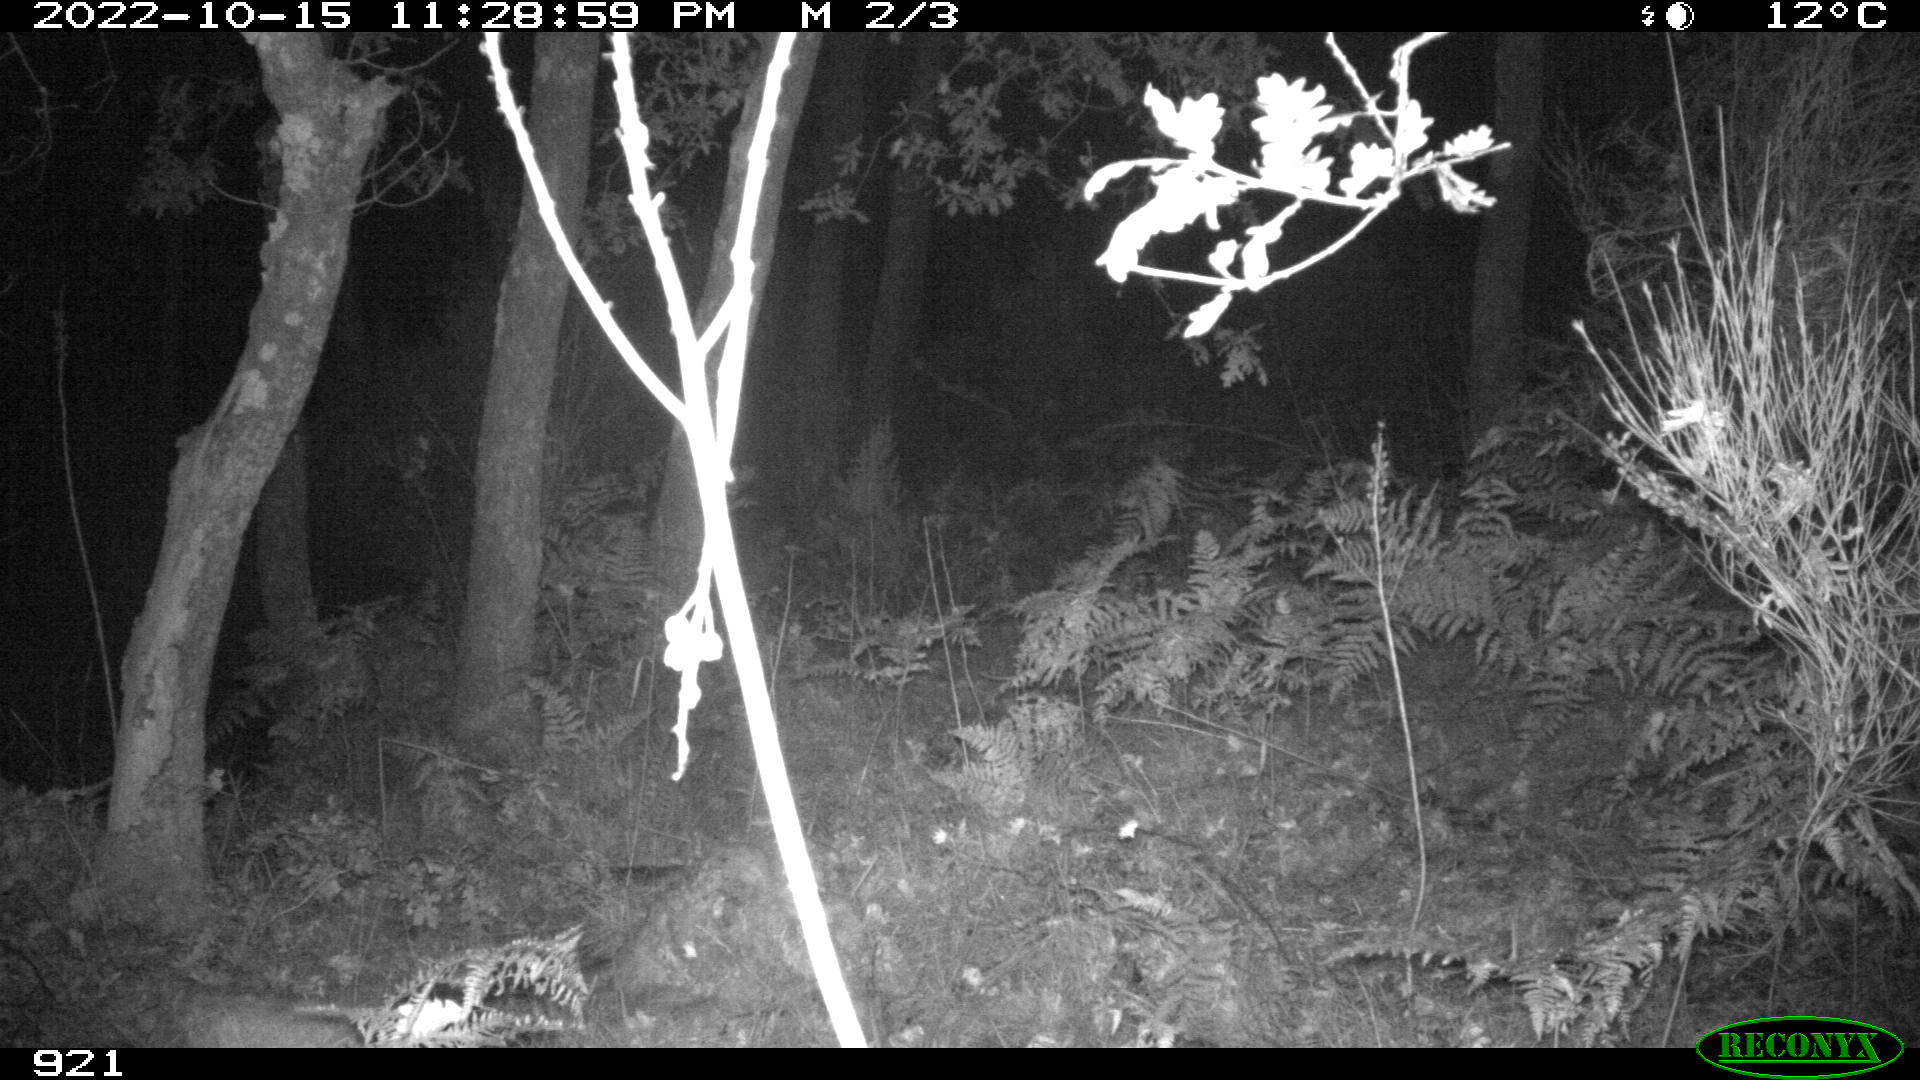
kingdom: Animalia
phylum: Chordata
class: Mammalia
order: Artiodactyla
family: Cervidae
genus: Capreolus
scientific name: Capreolus capreolus
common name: Western roe deer
